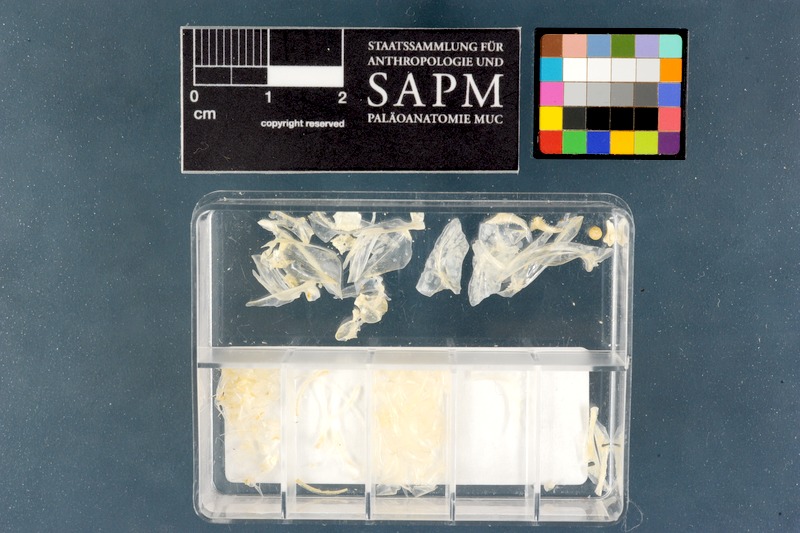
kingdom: Animalia
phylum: Chordata
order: Atheriniformes
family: Atherinidae
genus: Atherinomorus
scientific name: Atherinomorus lacunosus
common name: Hardyhead silverside
